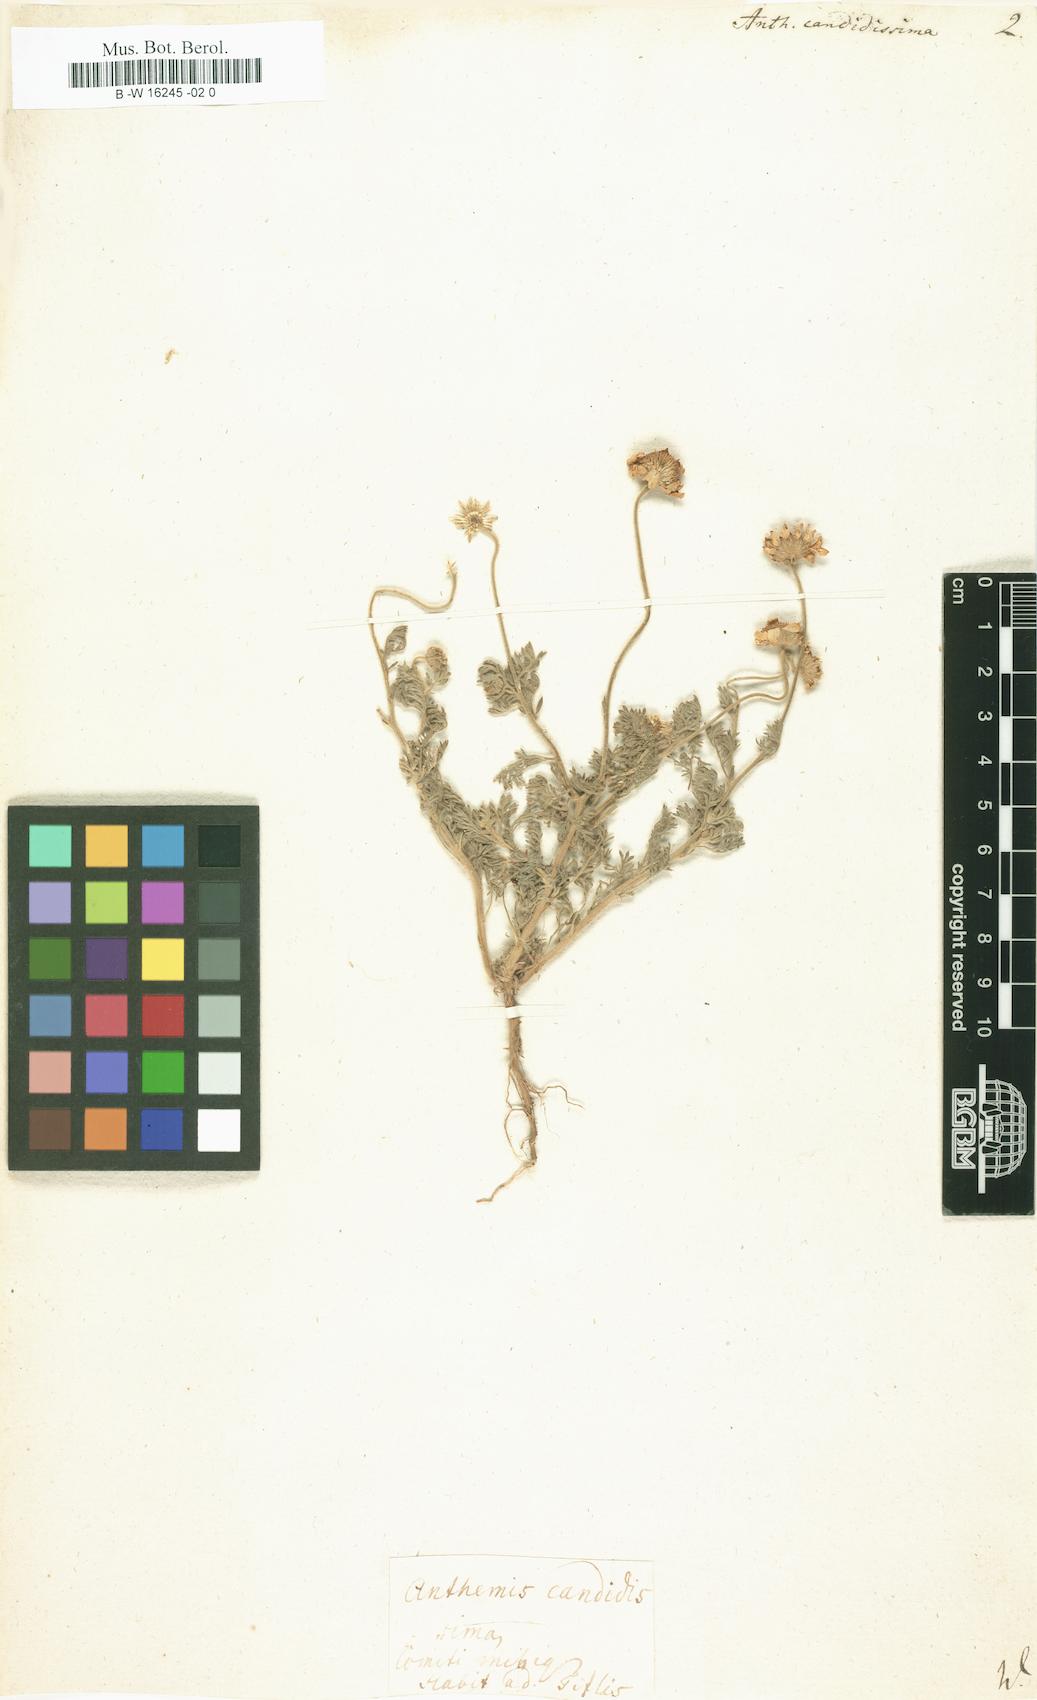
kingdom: Plantae
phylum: Tracheophyta
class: Magnoliopsida
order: Asterales
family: Asteraceae
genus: Anthemis
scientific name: Anthemis candidissima
